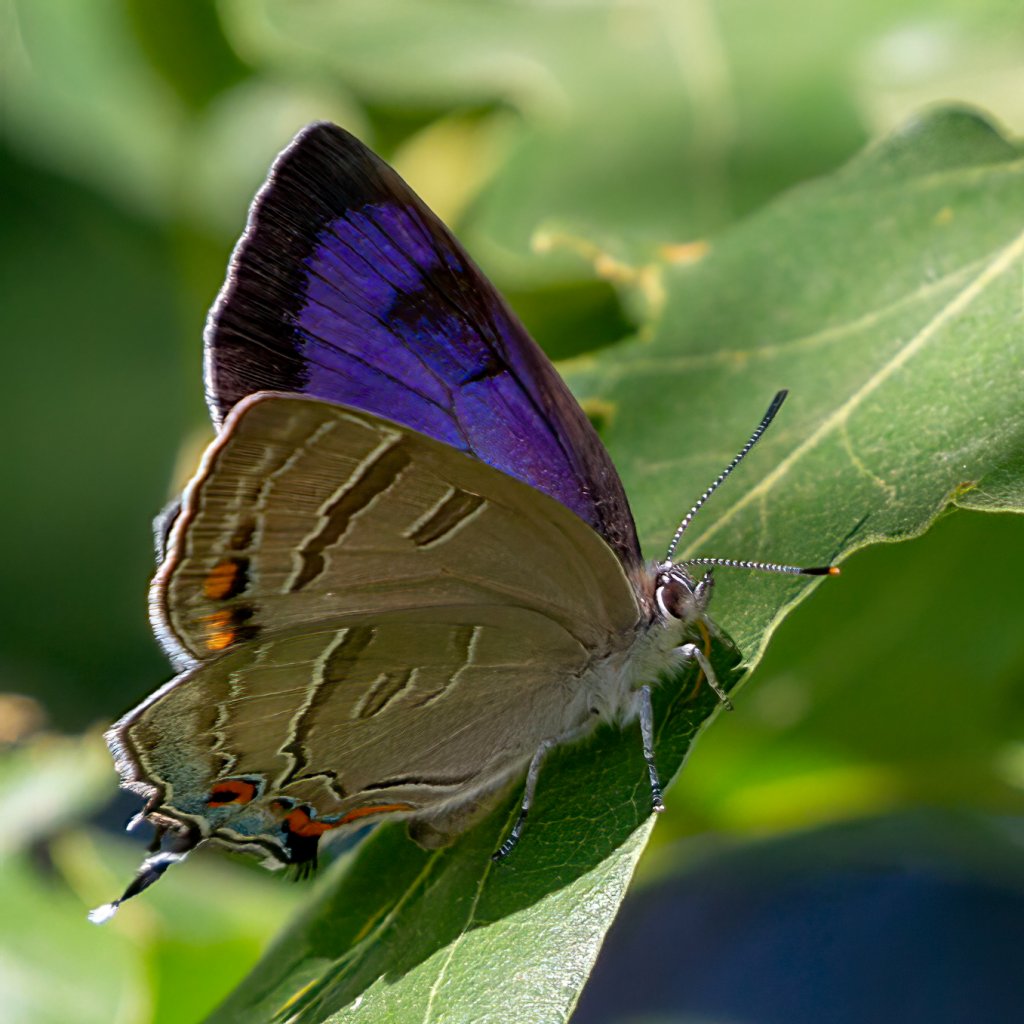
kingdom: Animalia
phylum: Arthropoda
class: Insecta
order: Lepidoptera
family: Lycaenidae
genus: Hypaurotis
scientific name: Hypaurotis crysalus
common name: Colorado Hairstreak
